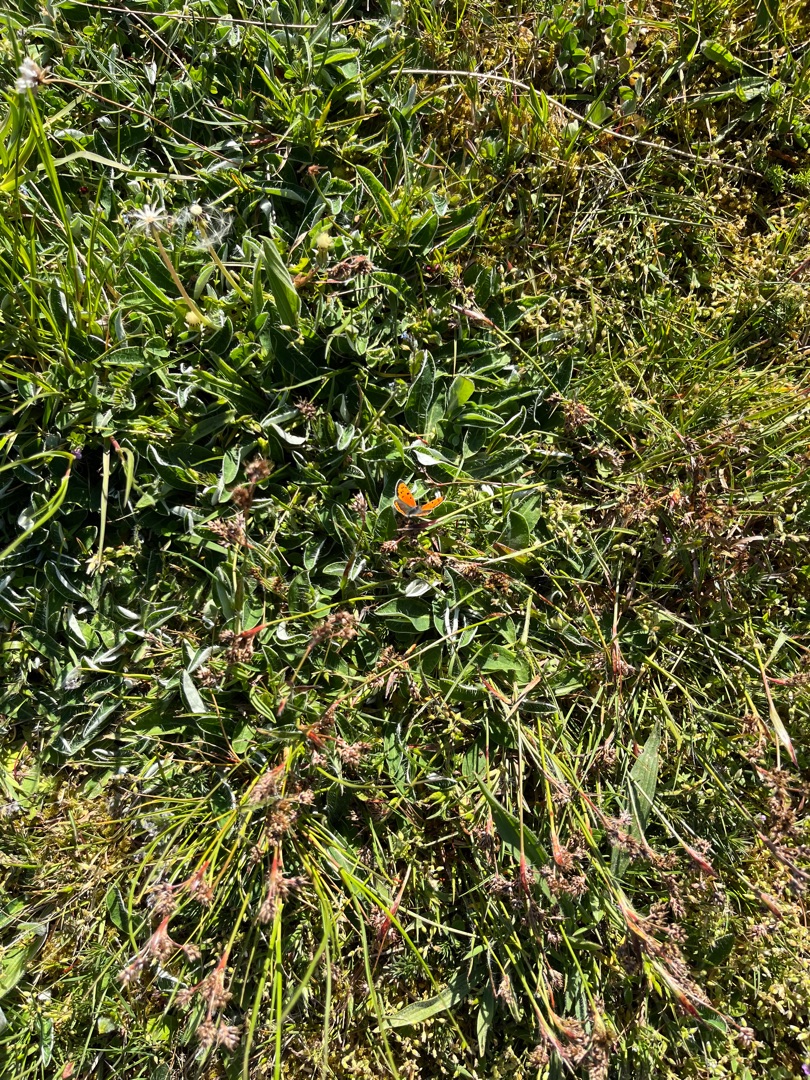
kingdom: Animalia
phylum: Arthropoda
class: Insecta
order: Lepidoptera
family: Lycaenidae
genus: Lycaena
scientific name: Lycaena phlaeas
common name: Lille ildfugl
